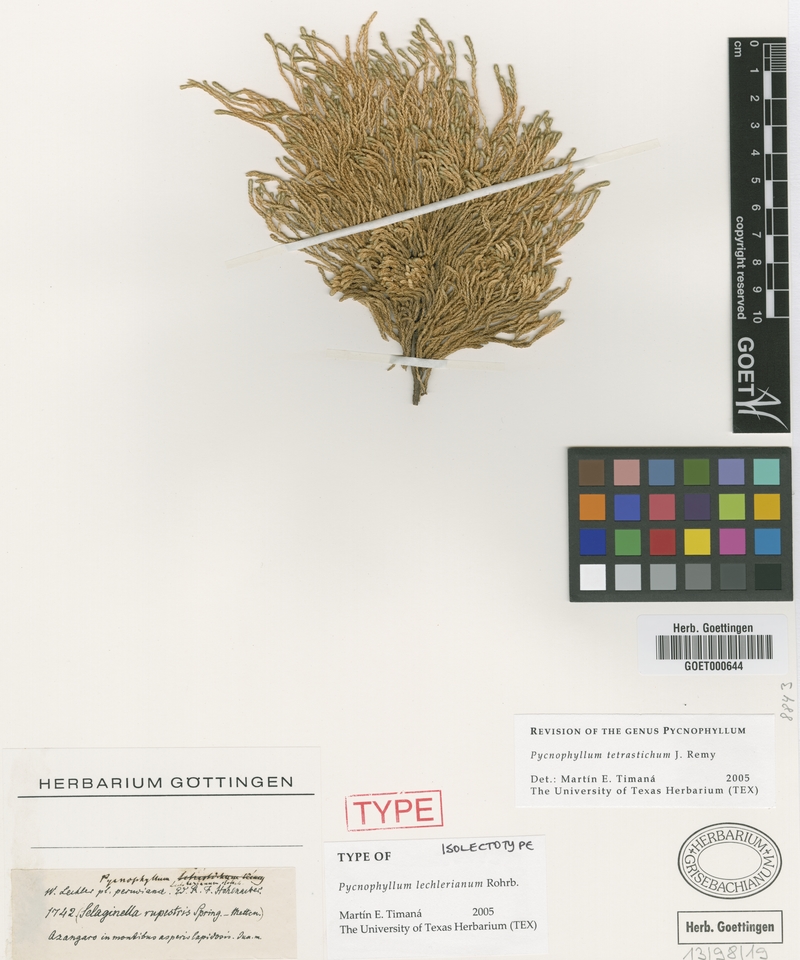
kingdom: Plantae
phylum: Tracheophyta
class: Magnoliopsida
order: Caryophyllales
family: Caryophyllaceae
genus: Pycnophyllum
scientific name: Pycnophyllum tetrastichum
